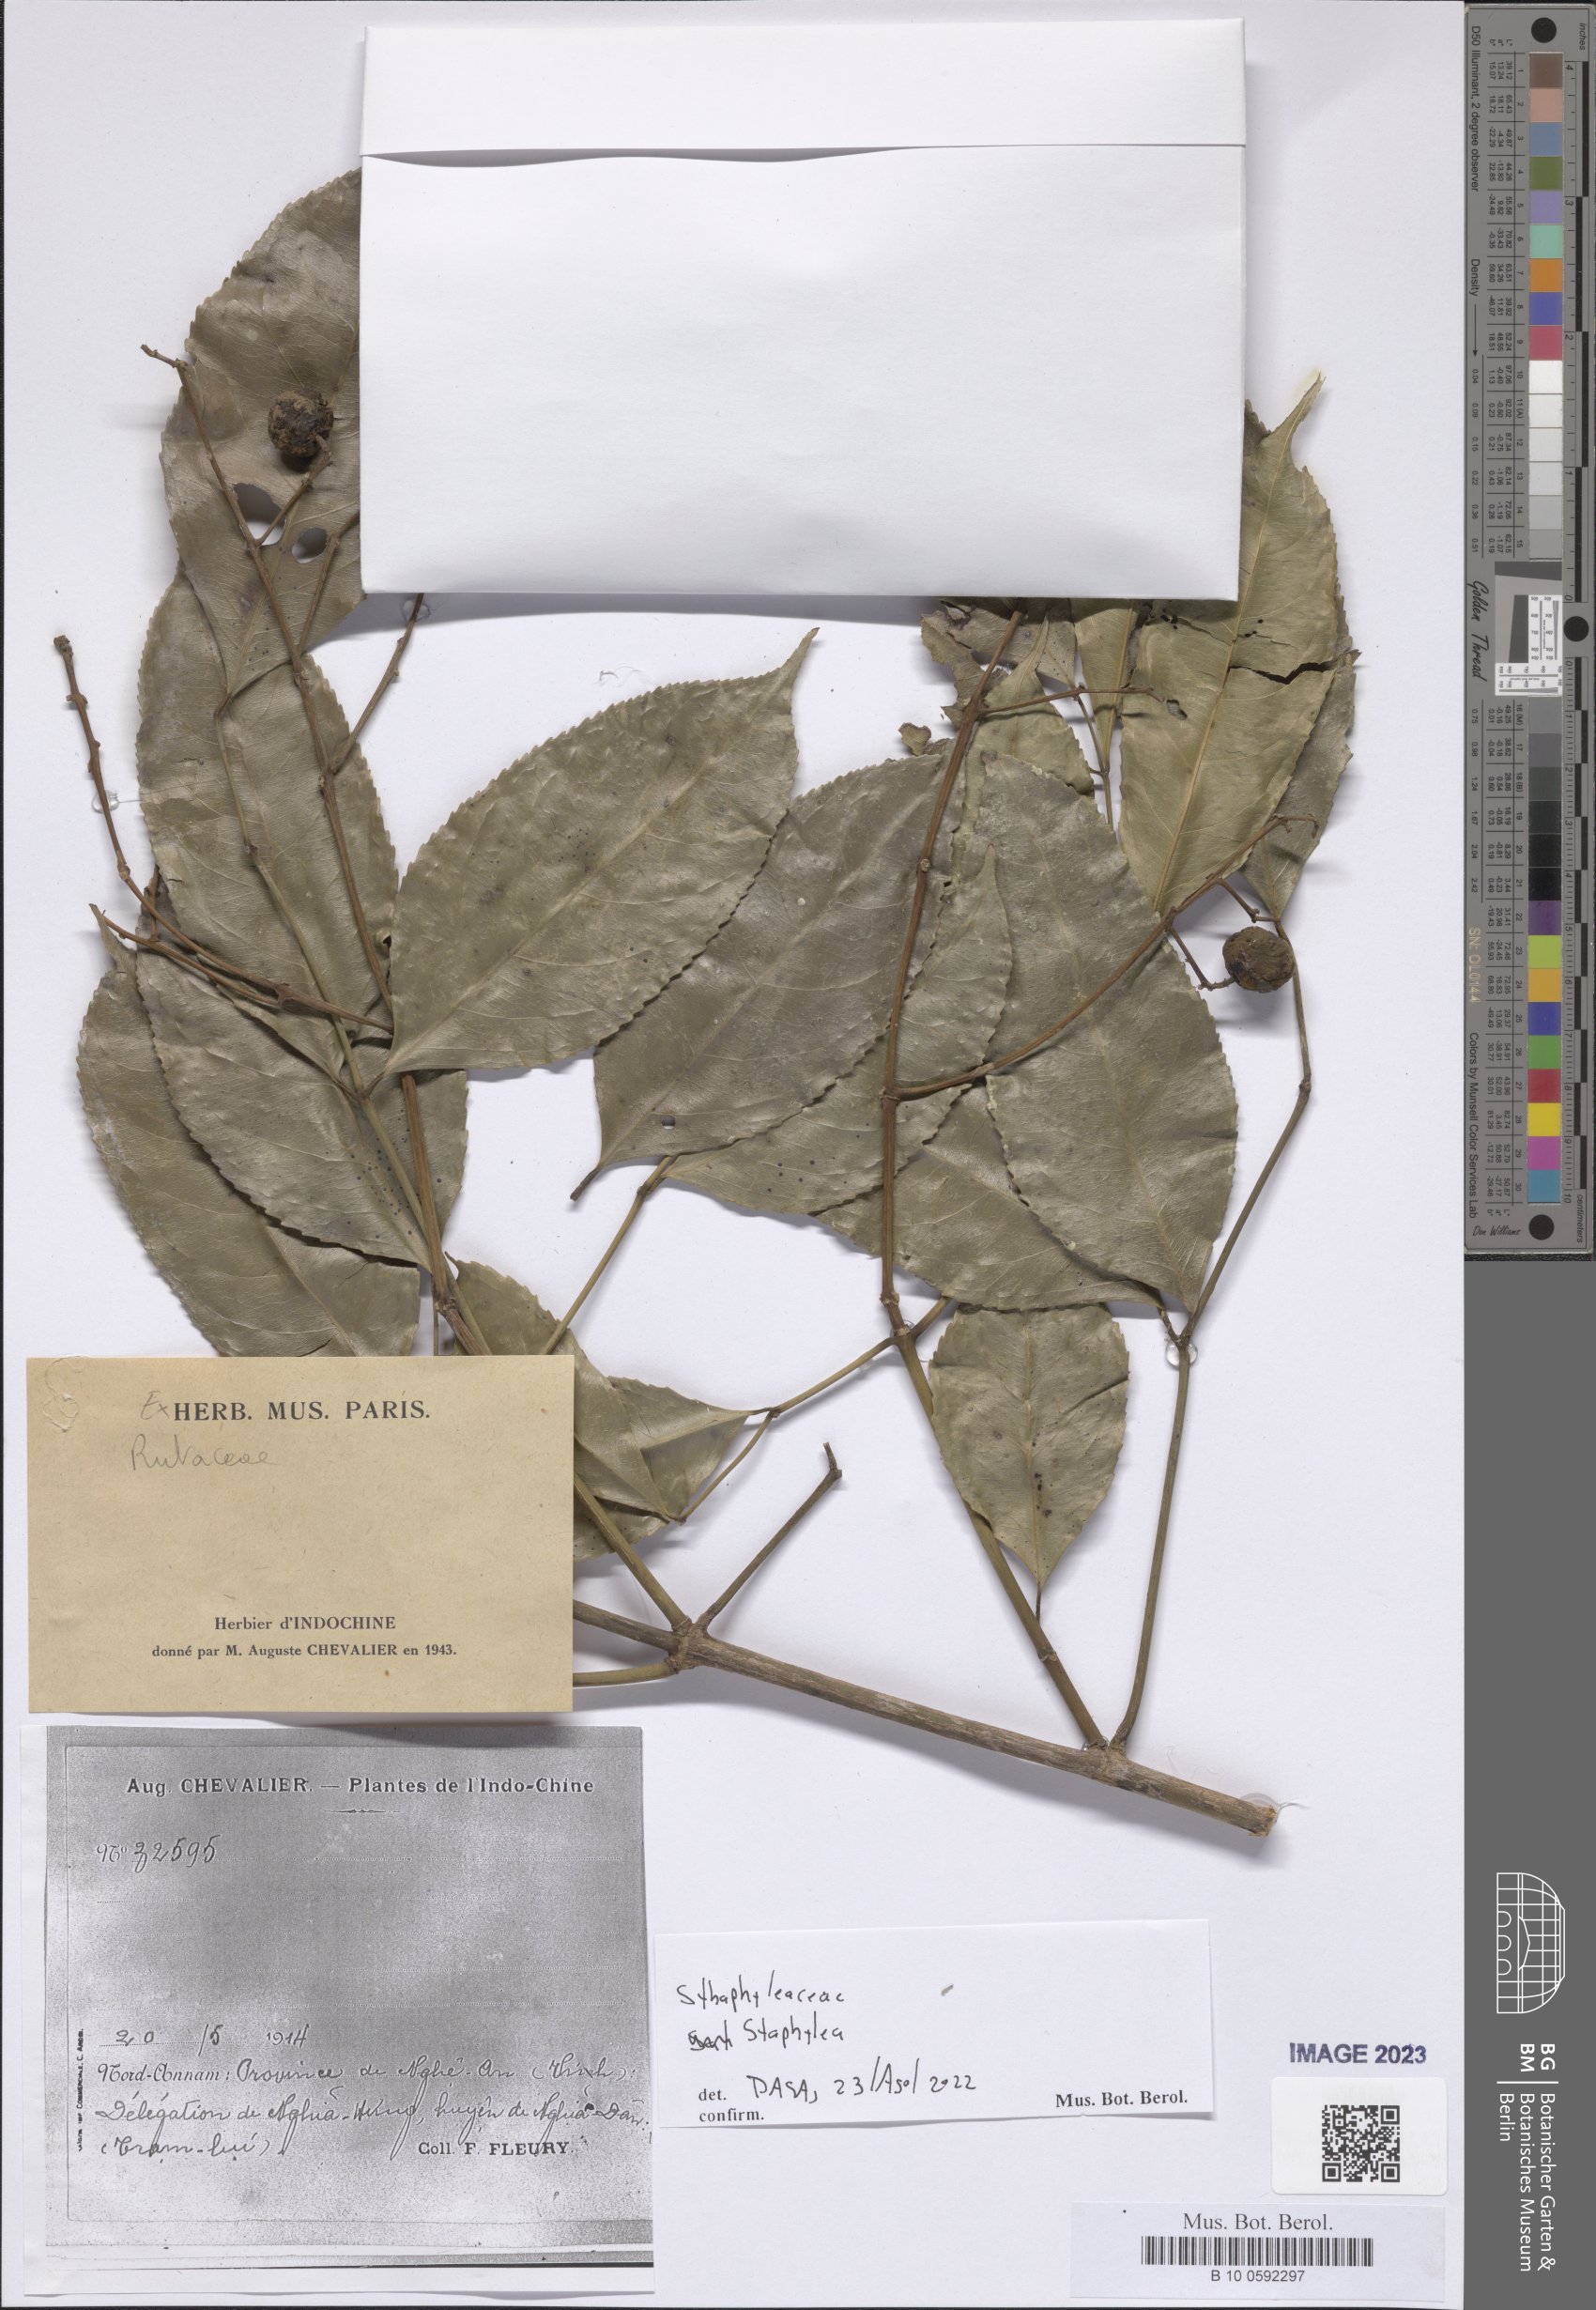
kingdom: Plantae
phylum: Tracheophyta
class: Magnoliopsida
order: Crossosomatales
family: Staphyleaceae
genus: Staphylea
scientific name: Staphylea
